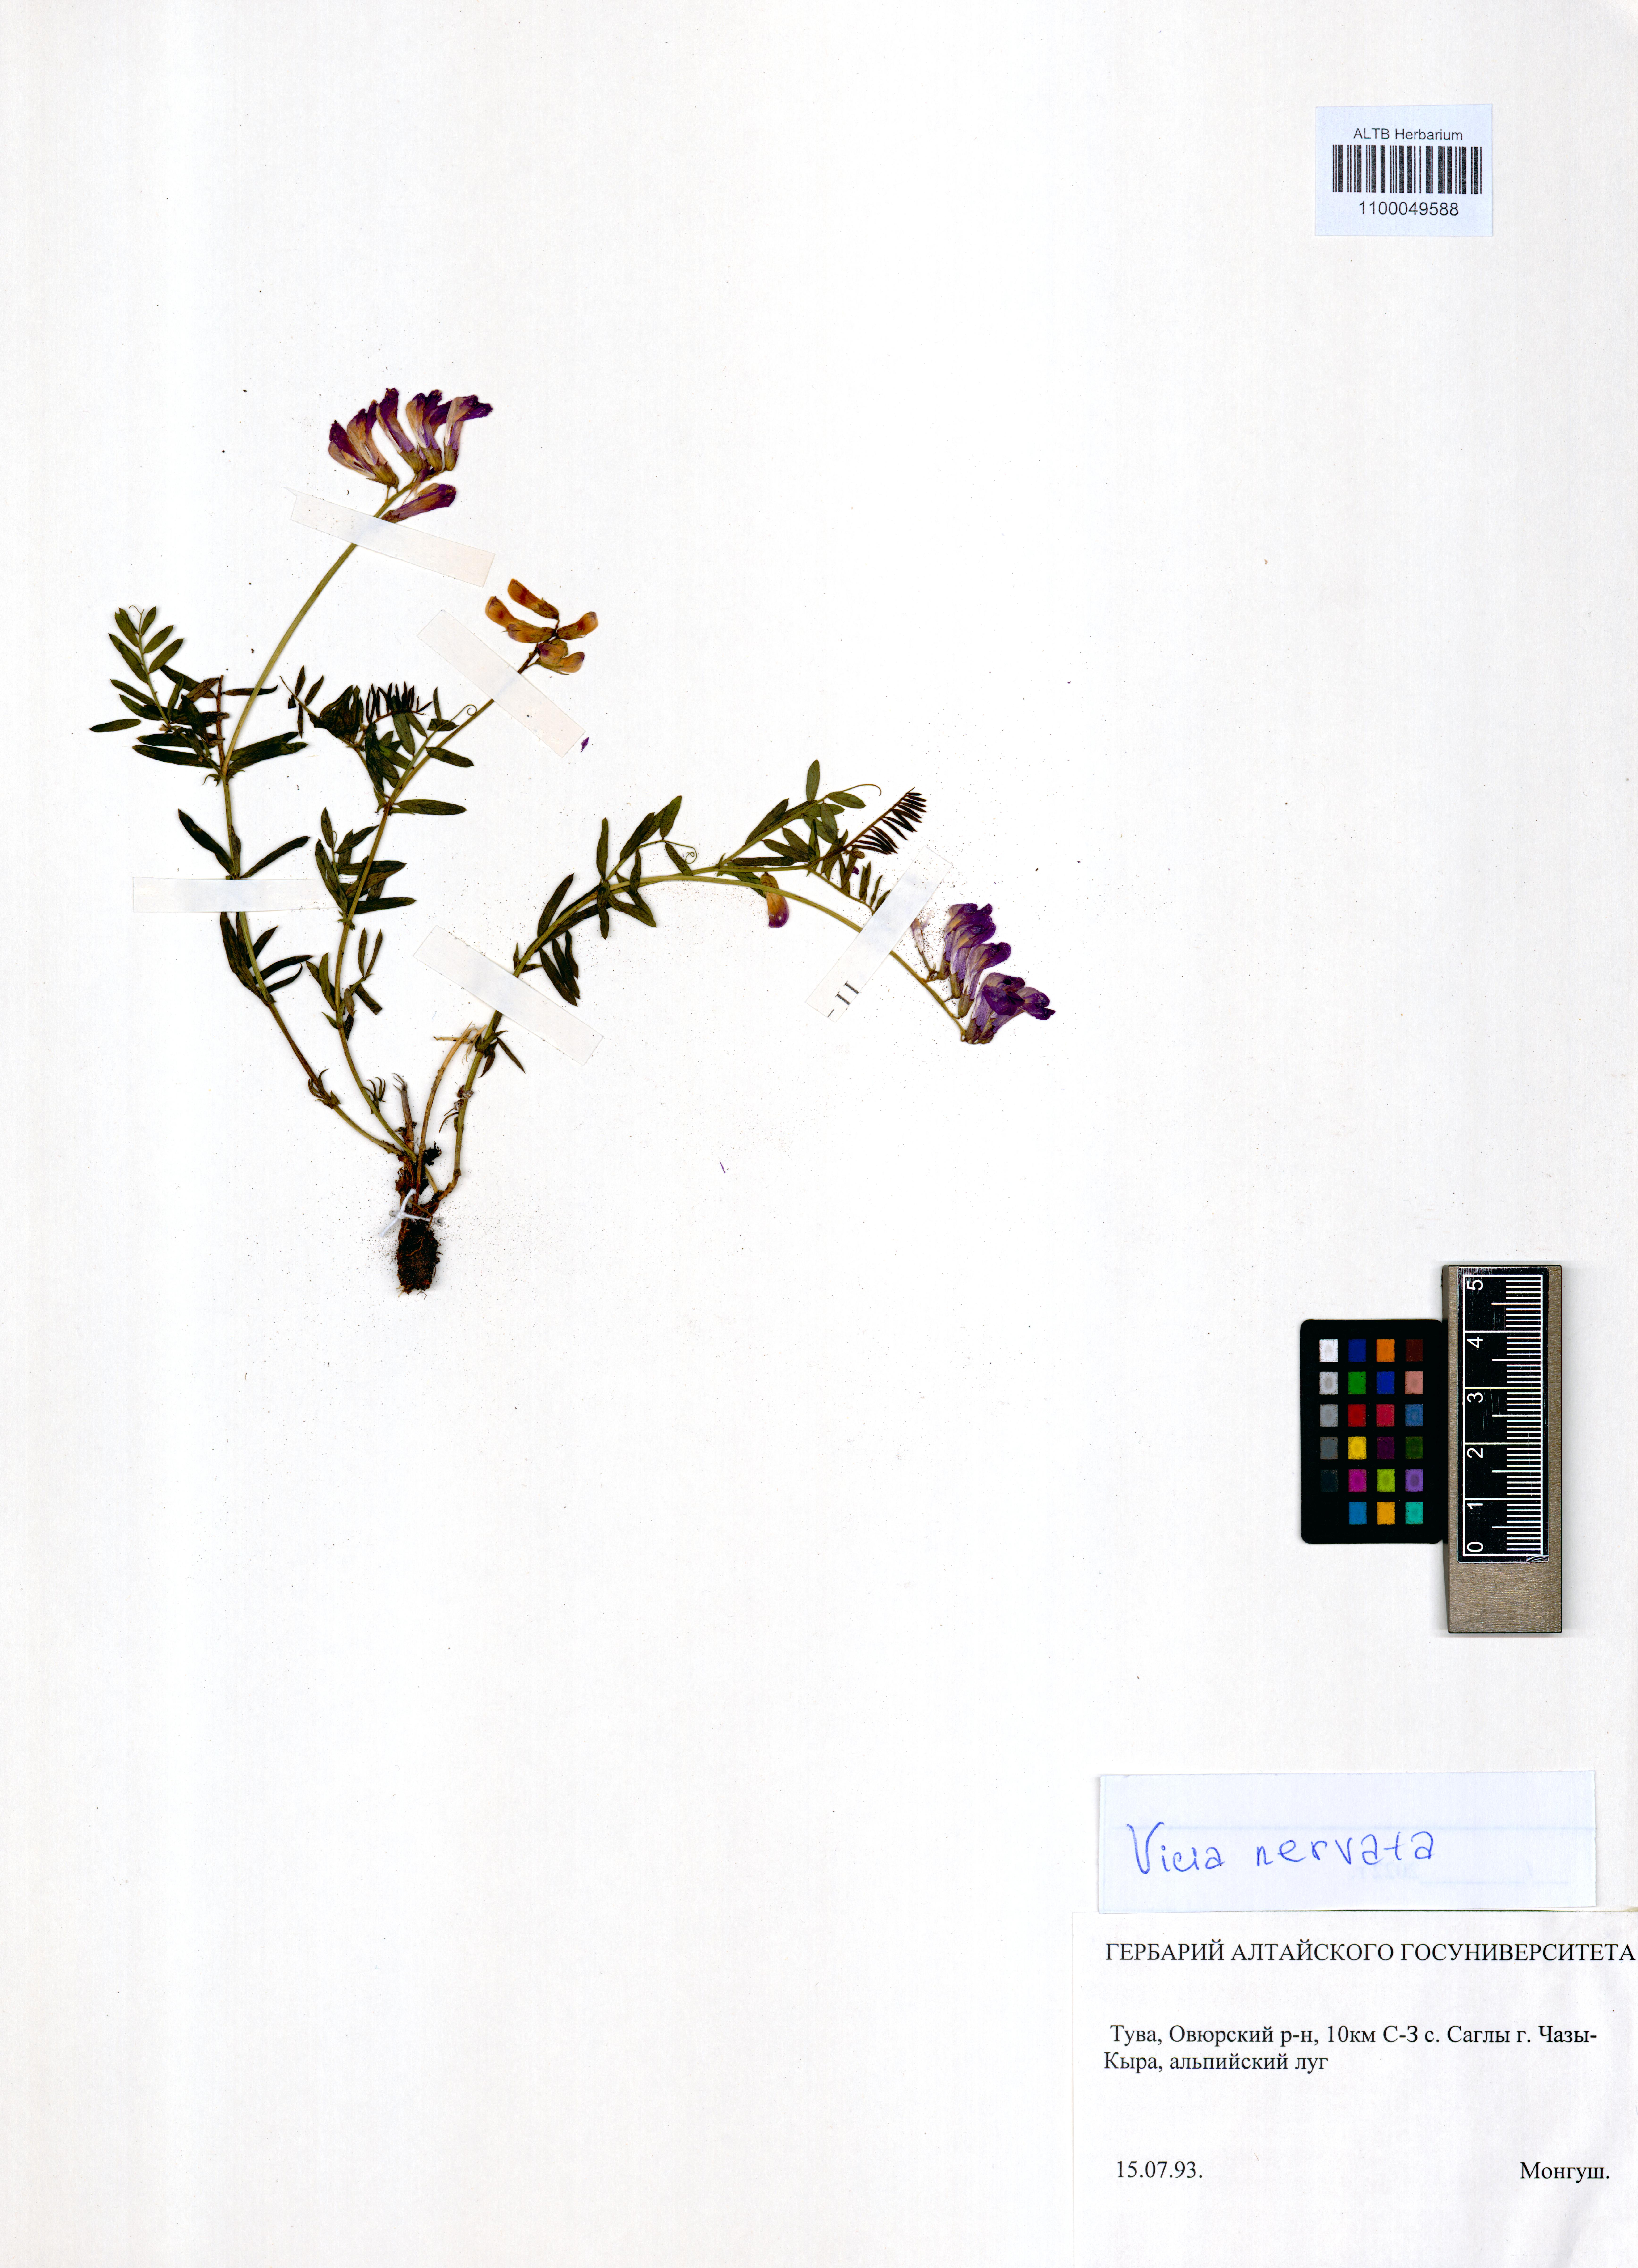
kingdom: Plantae
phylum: Tracheophyta
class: Magnoliopsida
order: Fabales
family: Fabaceae
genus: Vicia
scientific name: Vicia multicaulis
